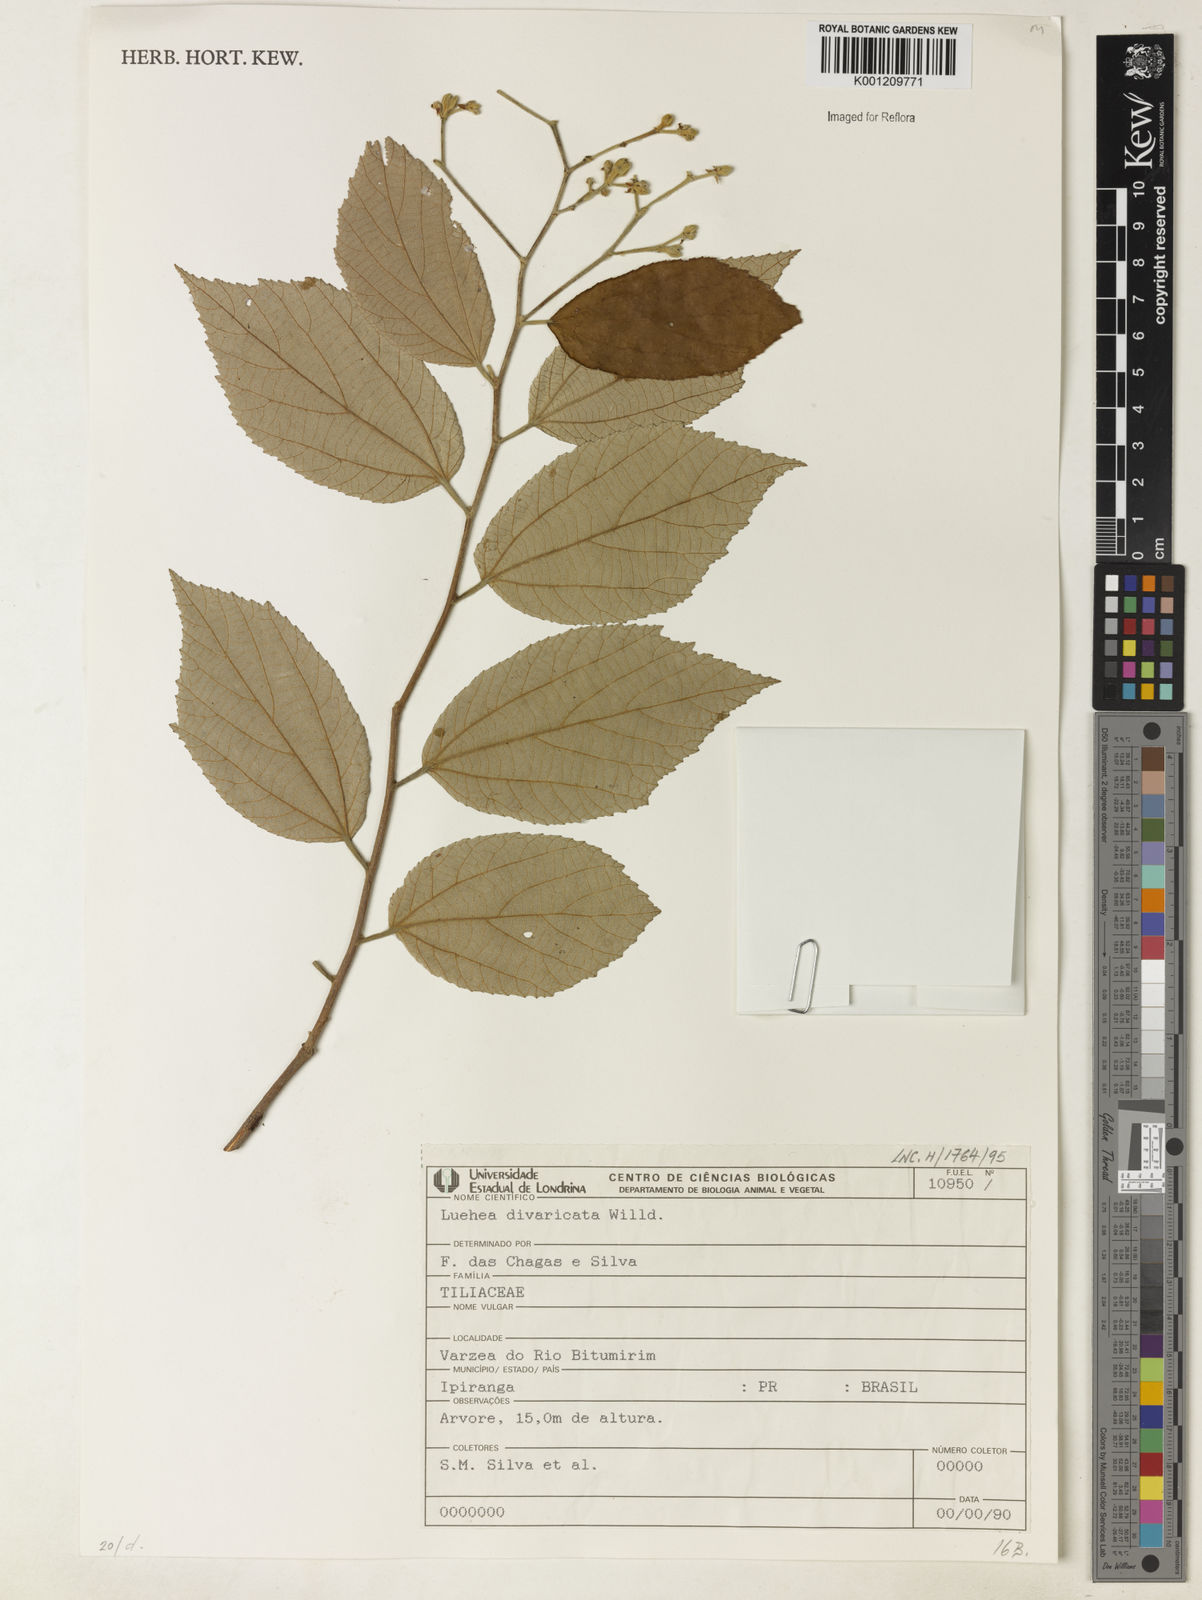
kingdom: Plantae
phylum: Tracheophyta
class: Magnoliopsida
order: Malvales
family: Malvaceae
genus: Luehea
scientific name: Luehea divaricata
